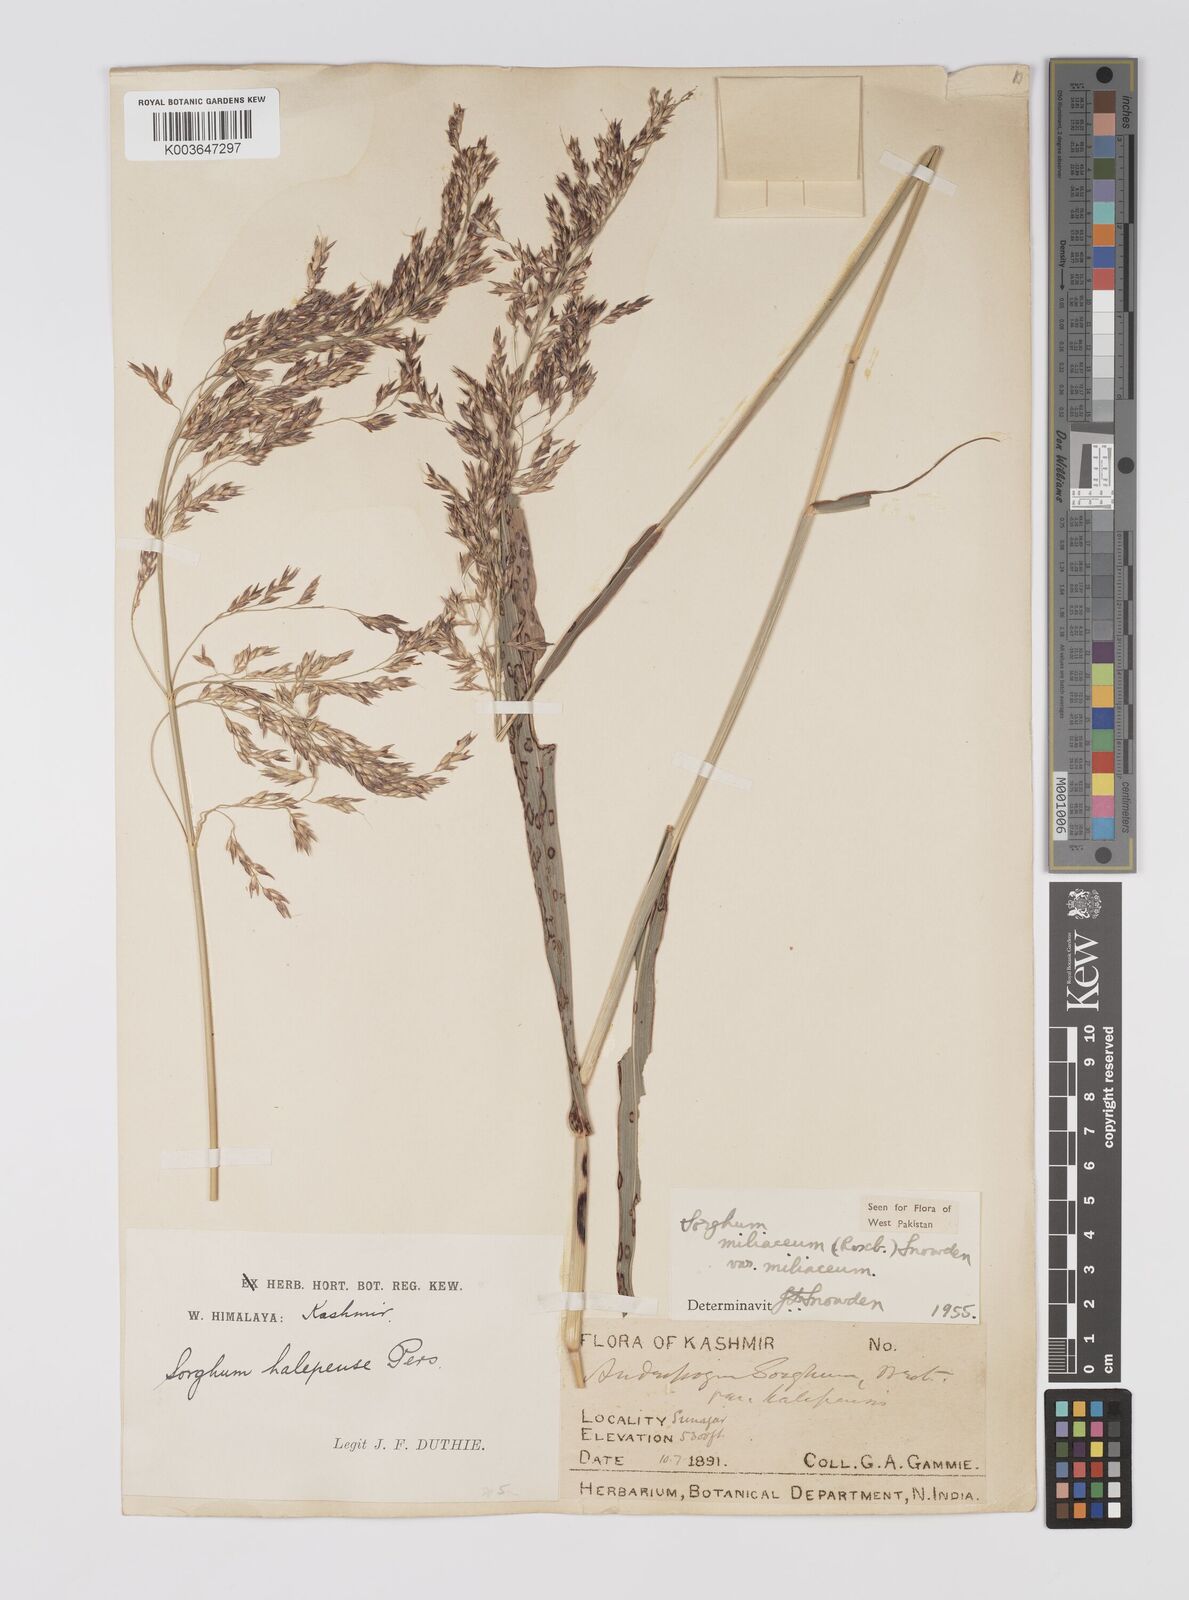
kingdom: Plantae
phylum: Tracheophyta
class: Liliopsida
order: Poales
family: Poaceae
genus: Sorghum
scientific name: Sorghum halepense
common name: Johnson-grass
